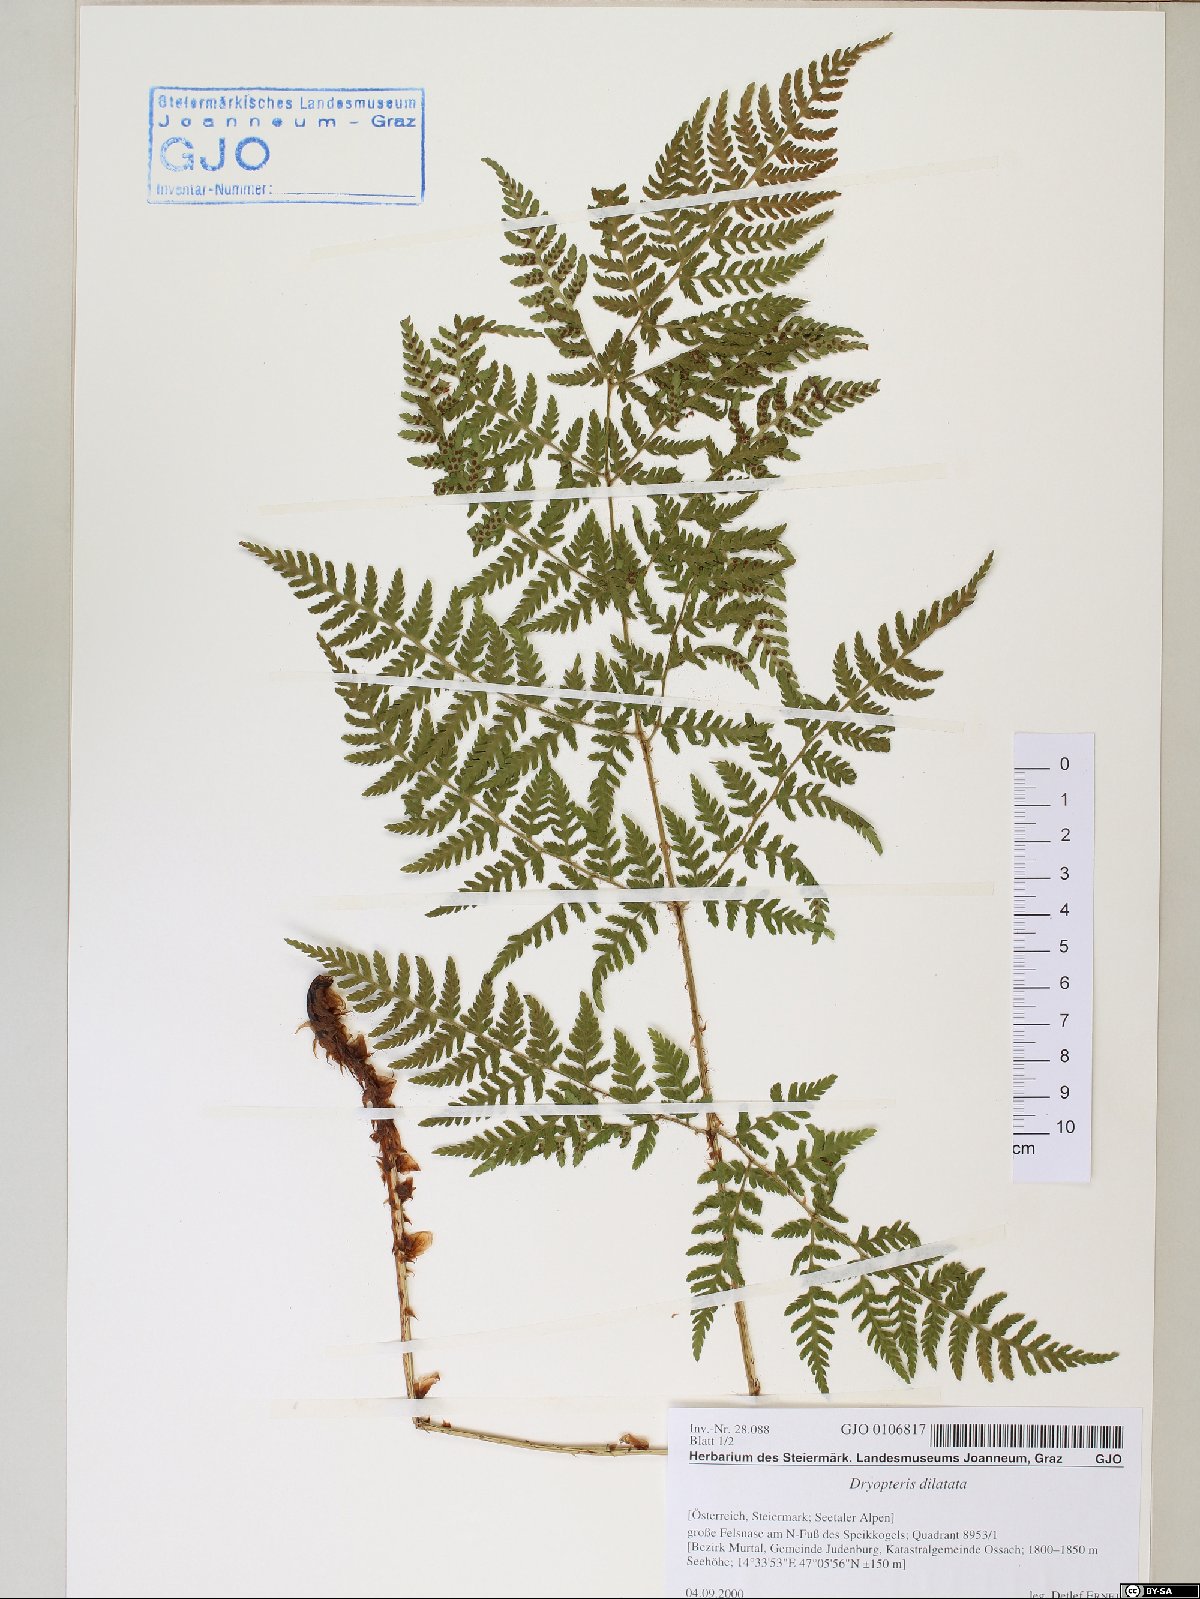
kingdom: Plantae
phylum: Tracheophyta
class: Polypodiopsida
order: Polypodiales
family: Dryopteridaceae
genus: Dryopteris
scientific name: Dryopteris dilatata
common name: Broad buckler-fern
